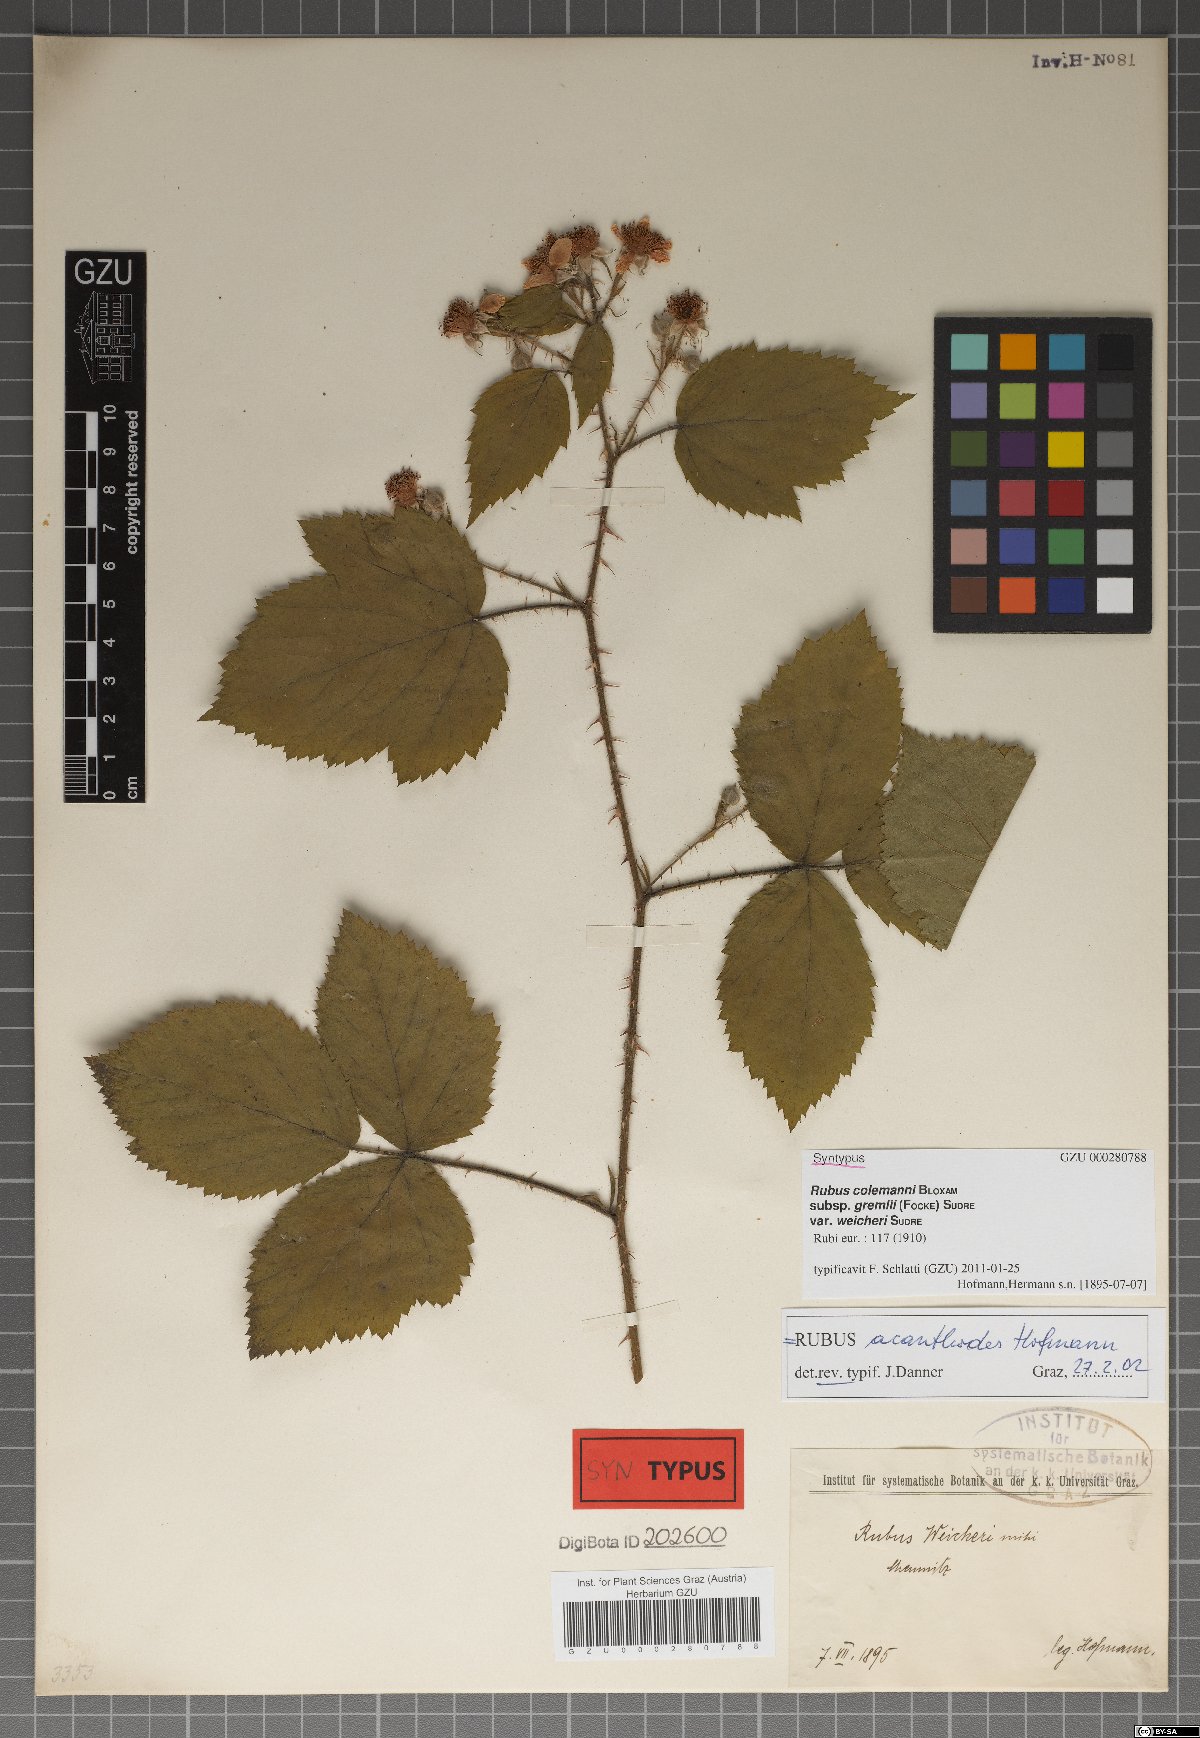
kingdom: Plantae
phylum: Tracheophyta
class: Magnoliopsida
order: Rosales
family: Rosaceae
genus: Rubus
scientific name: Rubus acanthodes
